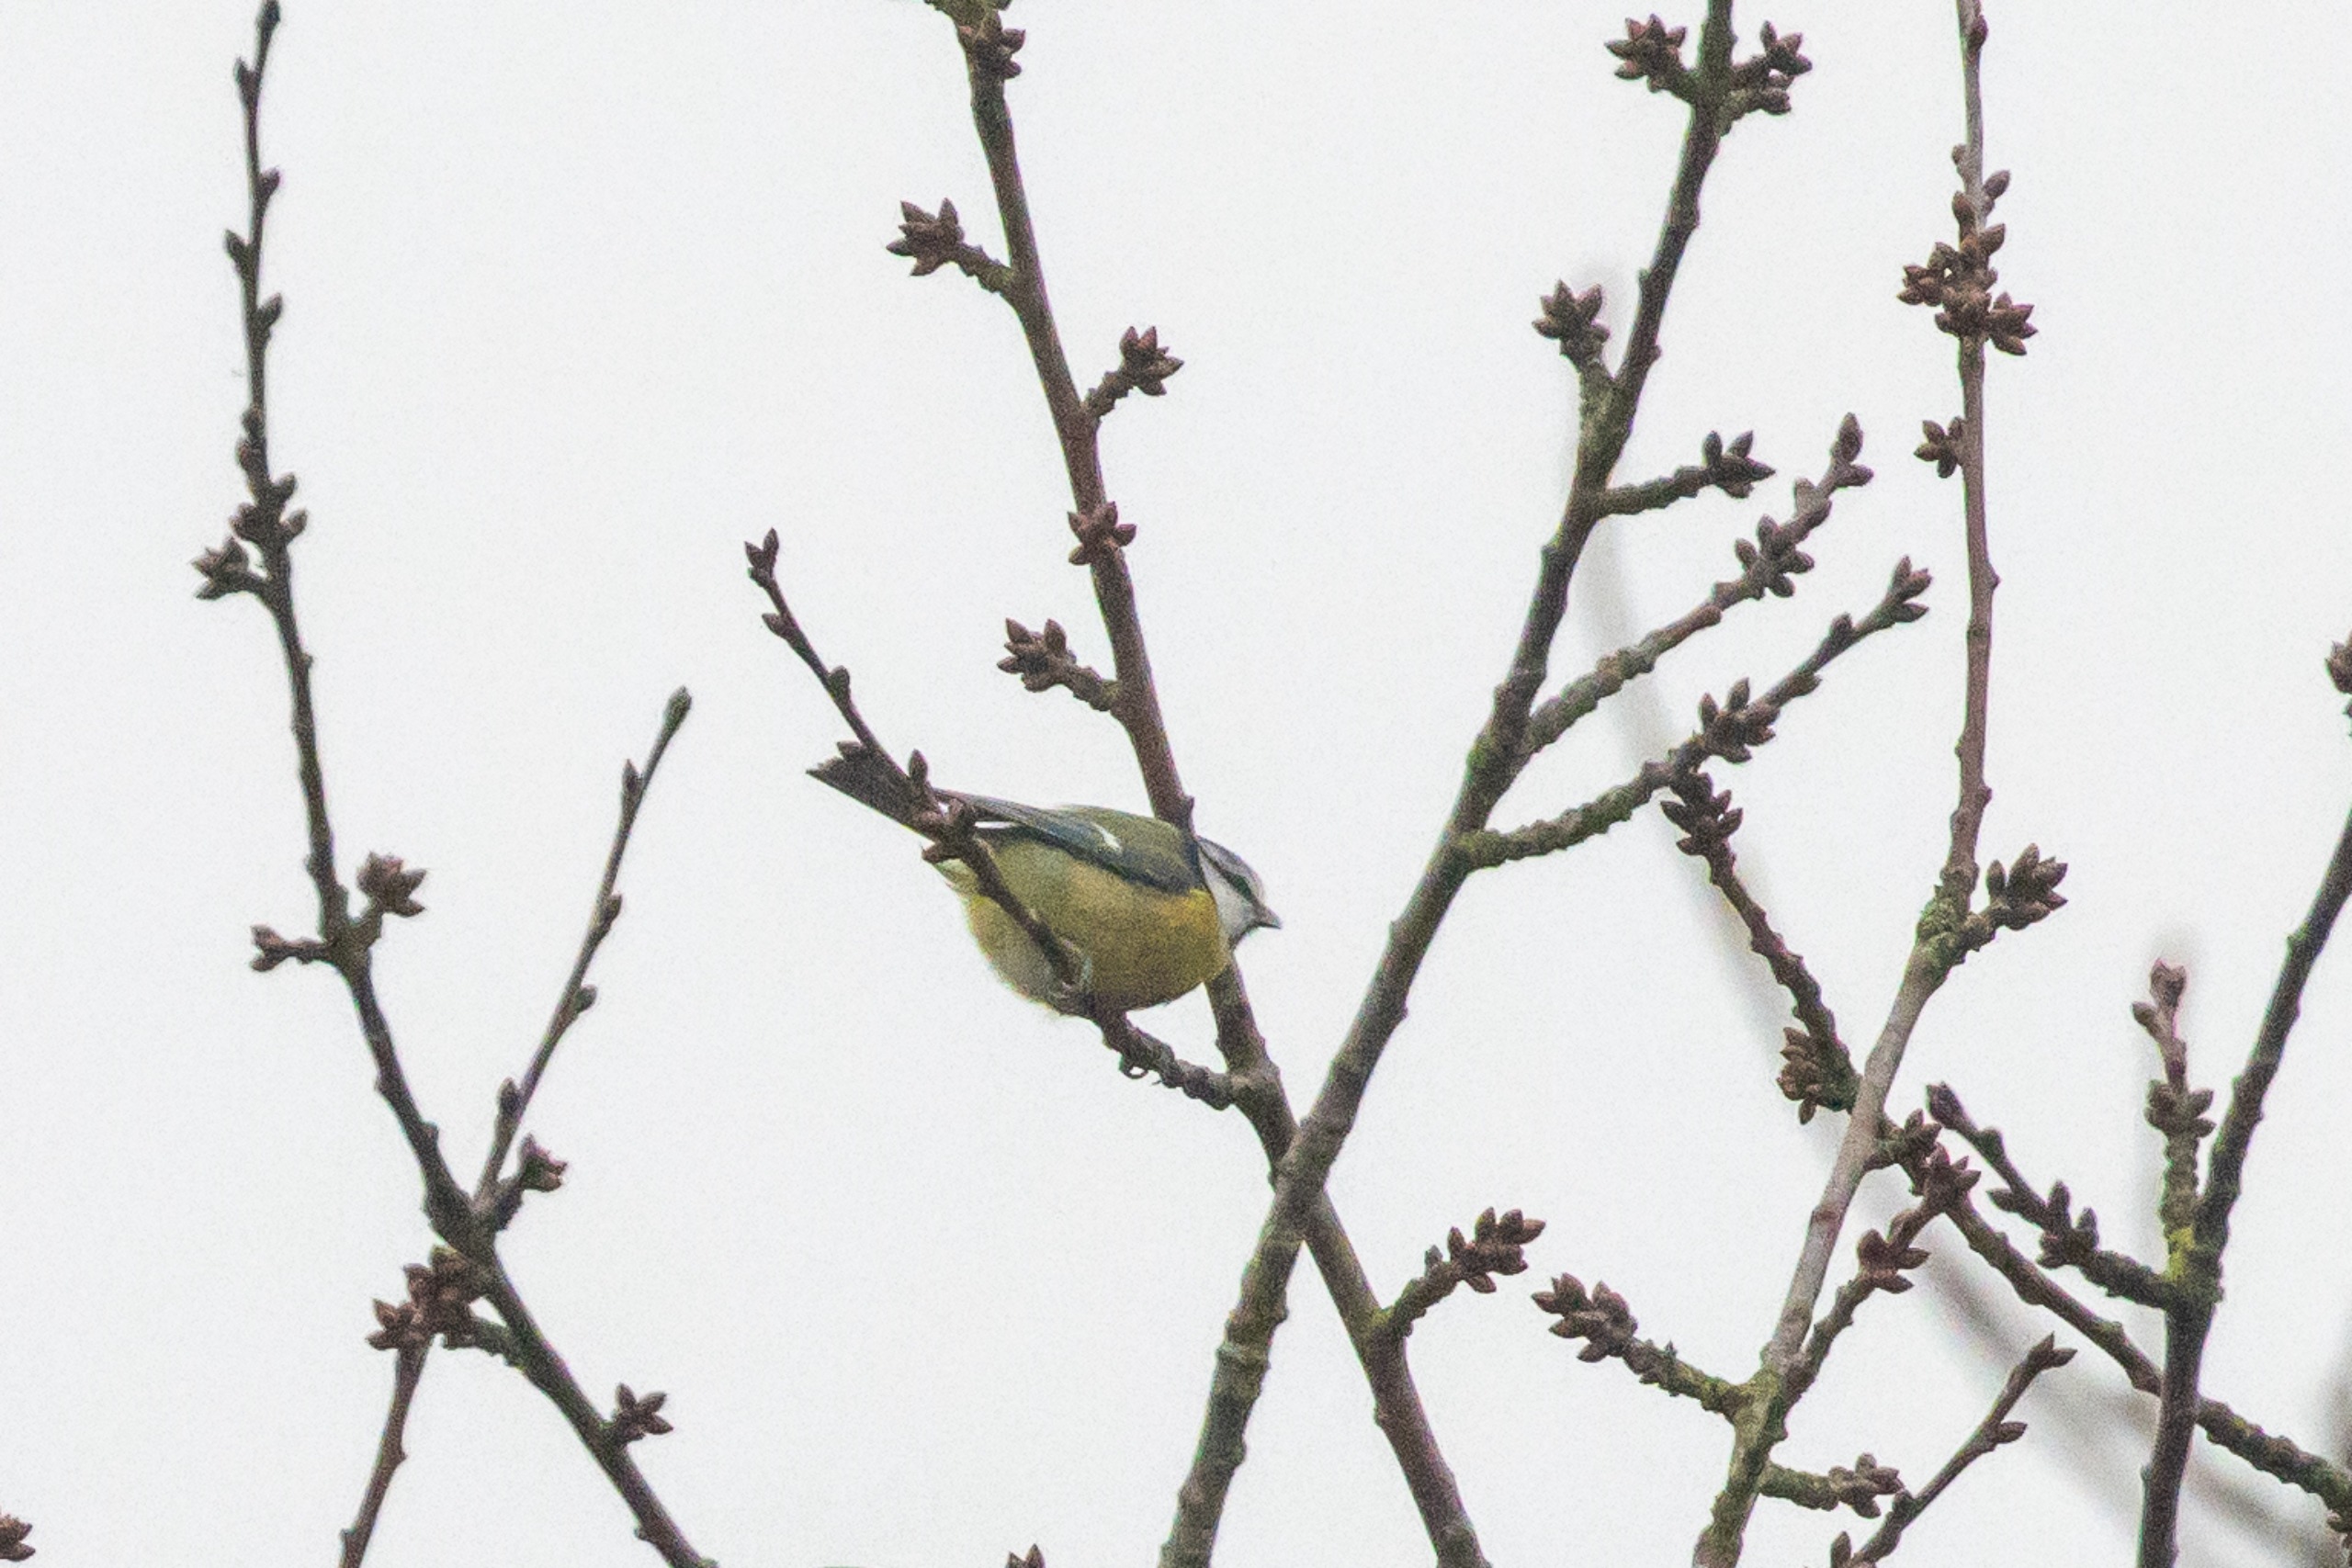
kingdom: Animalia
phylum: Chordata
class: Aves
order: Passeriformes
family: Paridae
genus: Cyanistes
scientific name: Cyanistes caeruleus
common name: Blåmejse
